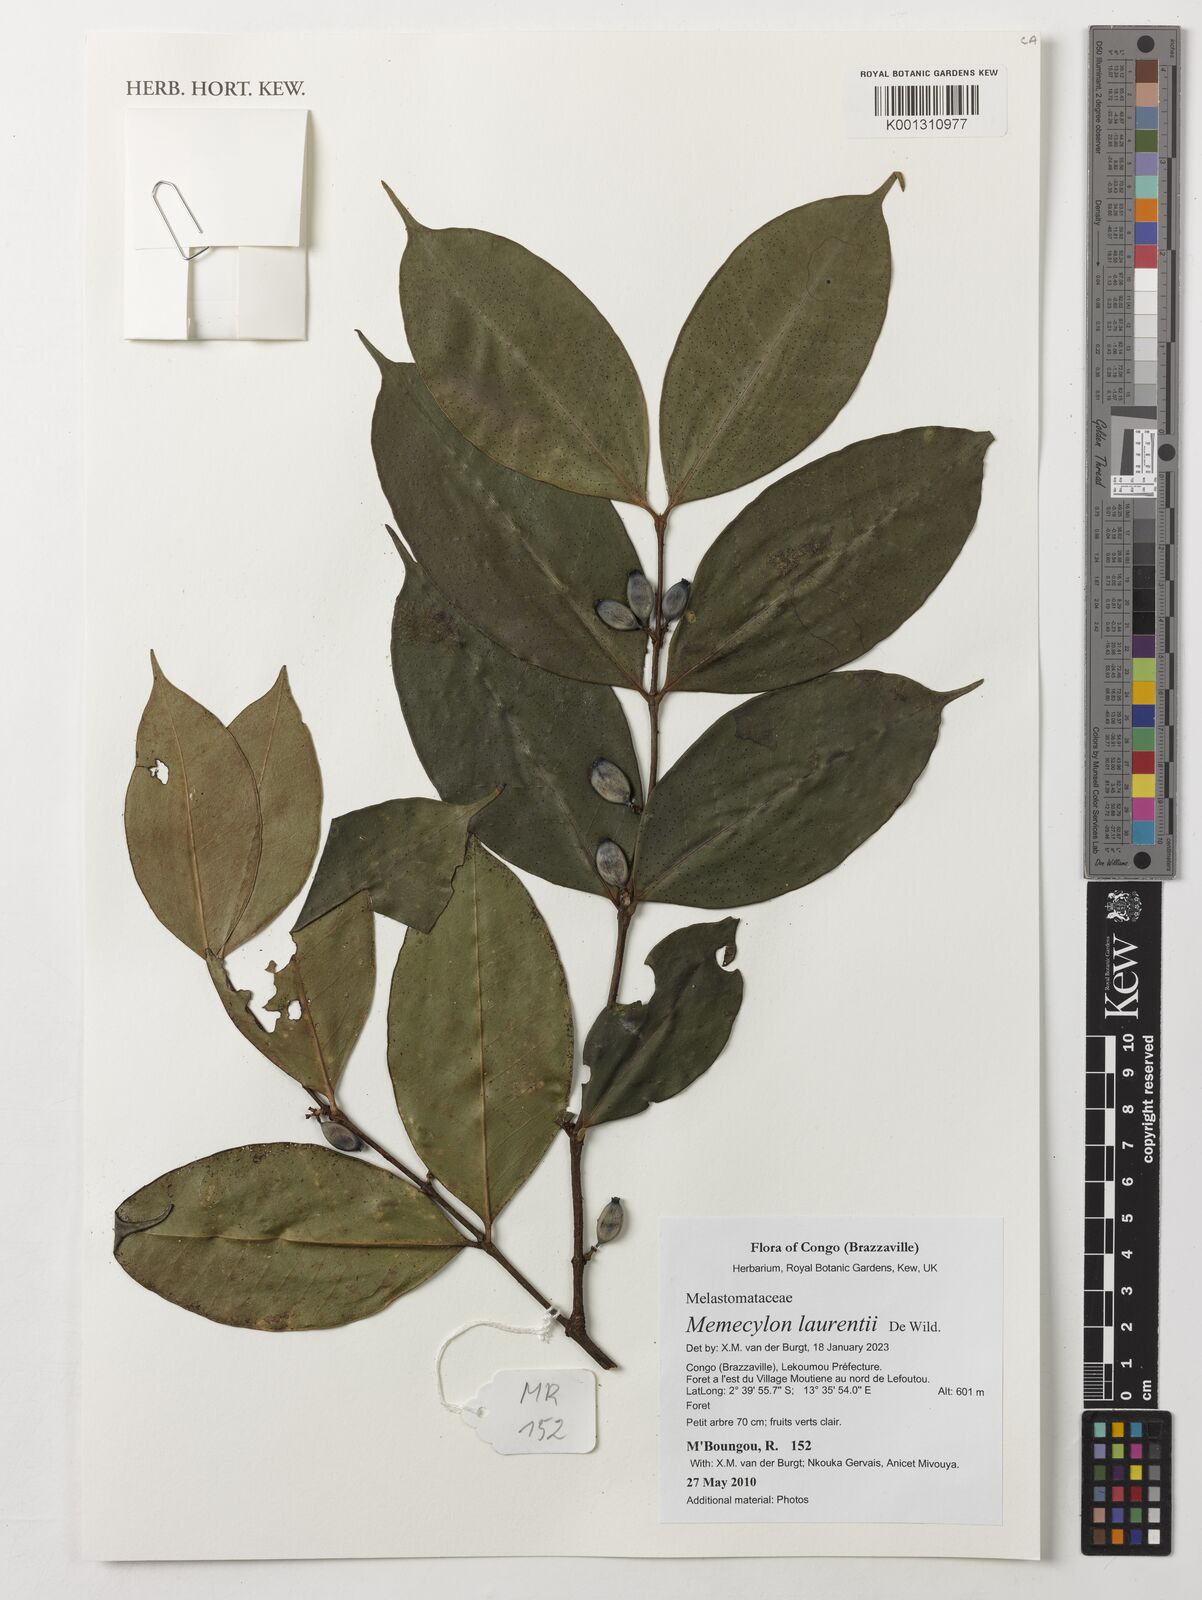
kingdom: Plantae
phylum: Tracheophyta
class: Magnoliopsida
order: Myrtales
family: Melastomataceae
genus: Memecylon
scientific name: Memecylon laurentii
